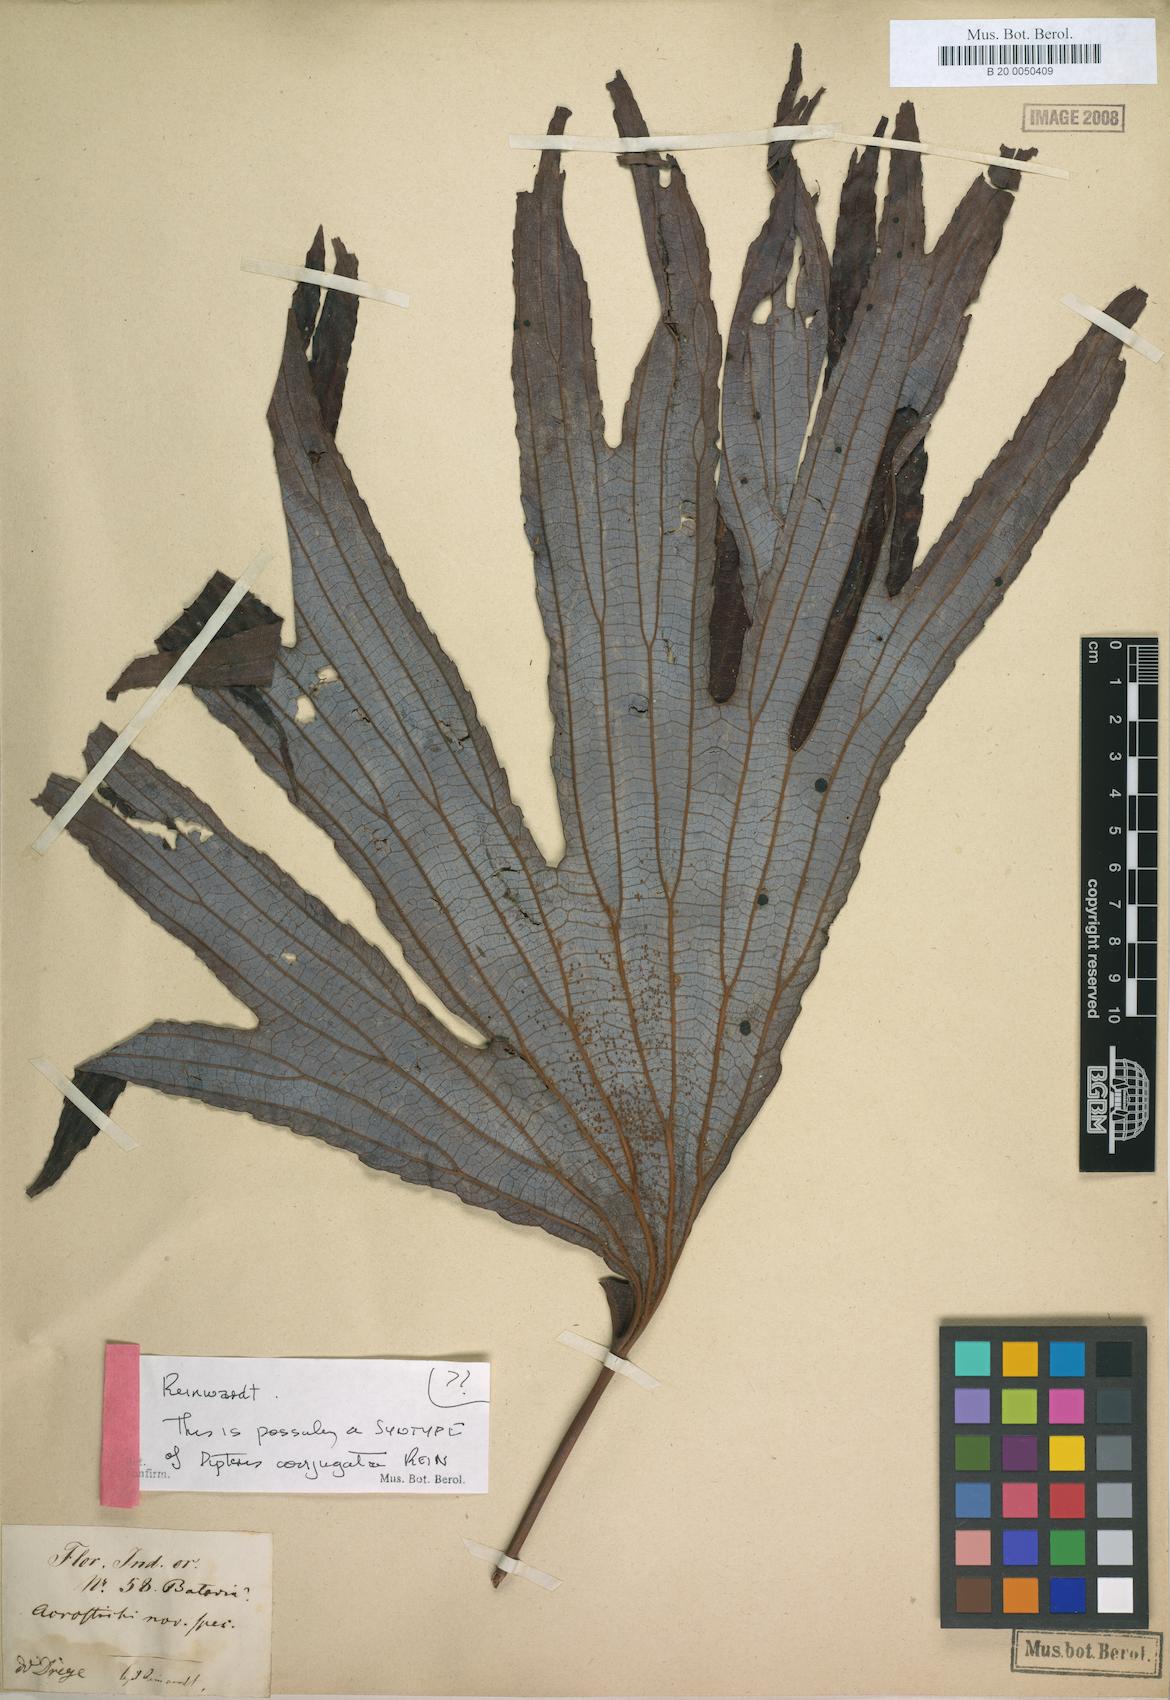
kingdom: Plantae
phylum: Tracheophyta
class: Polypodiopsida
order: Gleicheniales
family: Dipteridaceae
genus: Dipteris
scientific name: Dipteris conjugata
